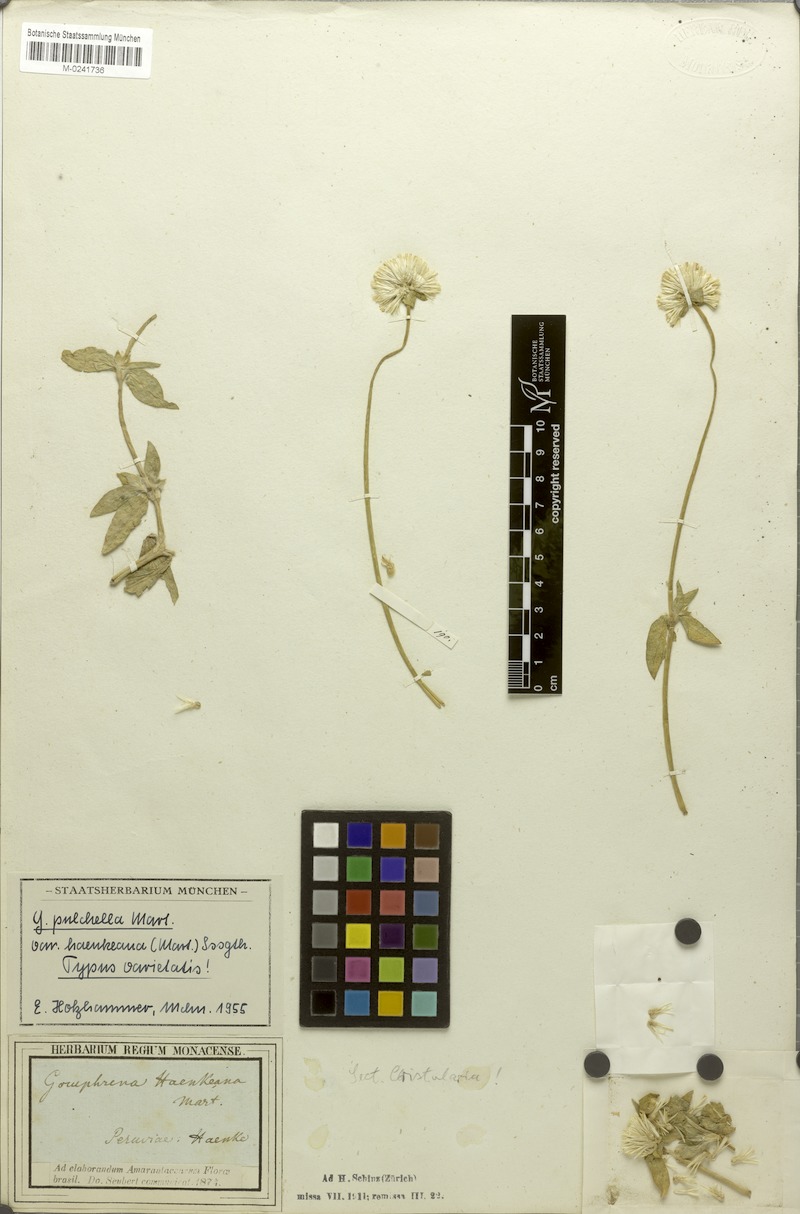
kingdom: Plantae
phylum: Tracheophyta
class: Magnoliopsida
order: Caryophyllales
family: Amaranthaceae
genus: Gomphrena
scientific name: Gomphrena haenkeana
